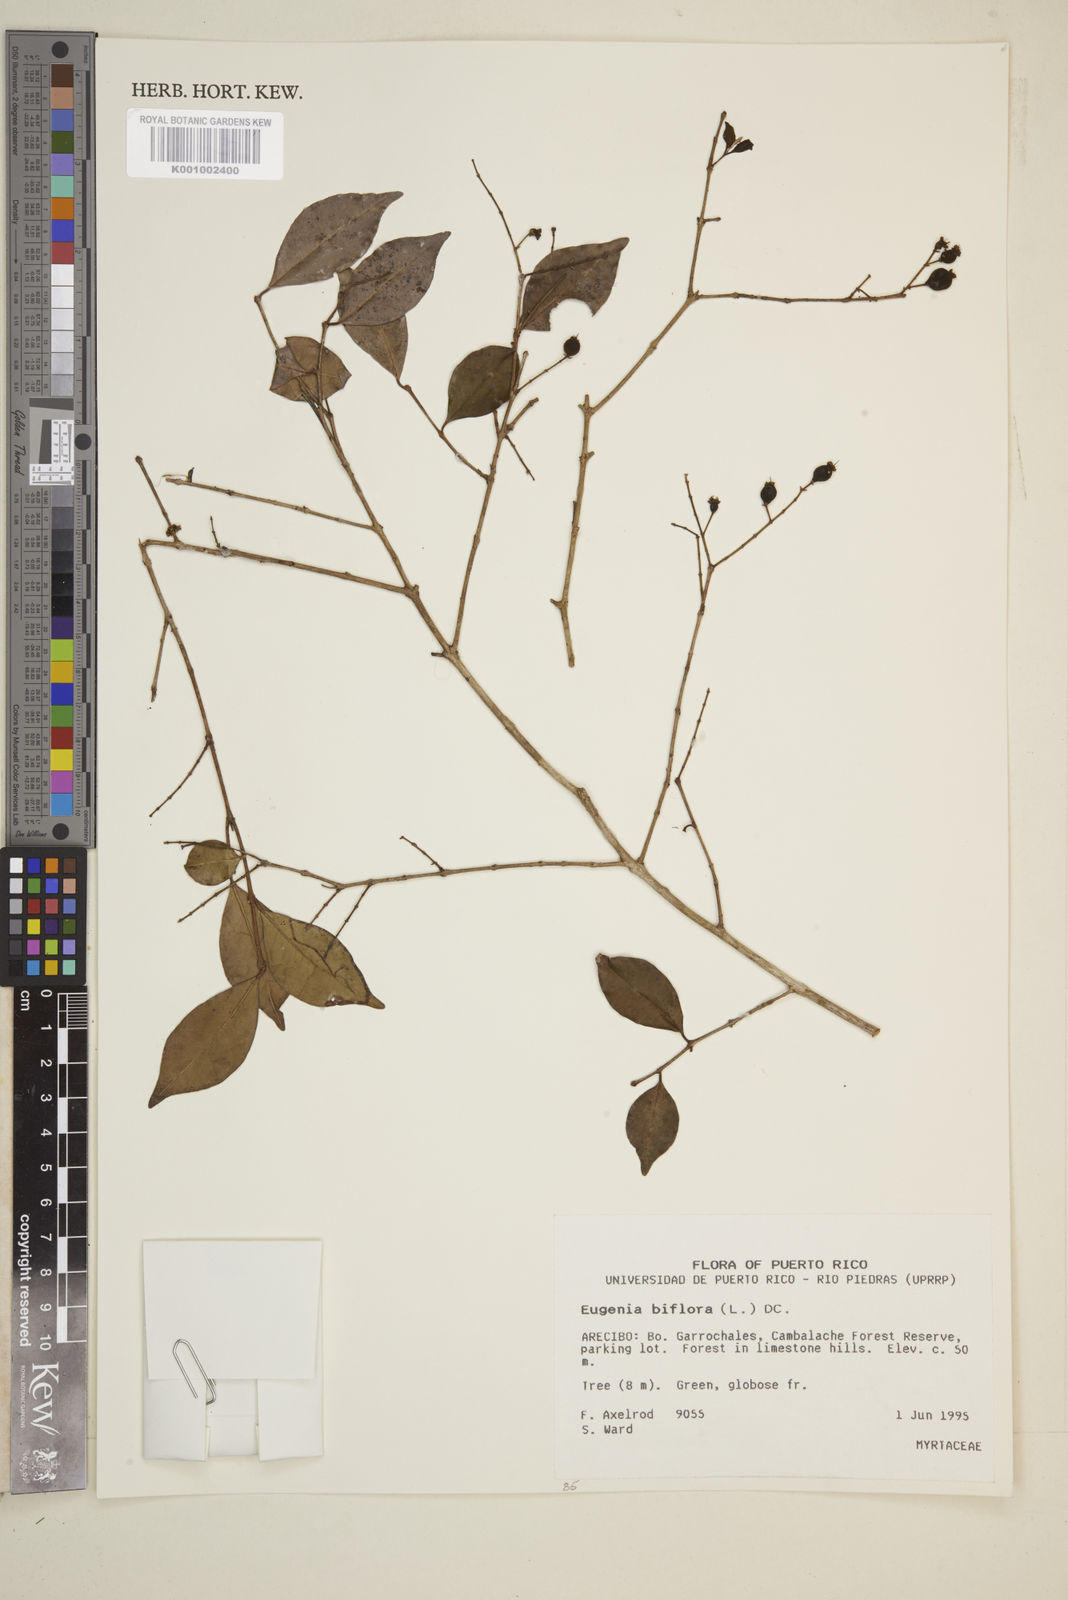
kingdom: Plantae
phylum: Tracheophyta
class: Magnoliopsida
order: Myrtales
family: Myrtaceae
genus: Eugenia
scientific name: Eugenia biflora
